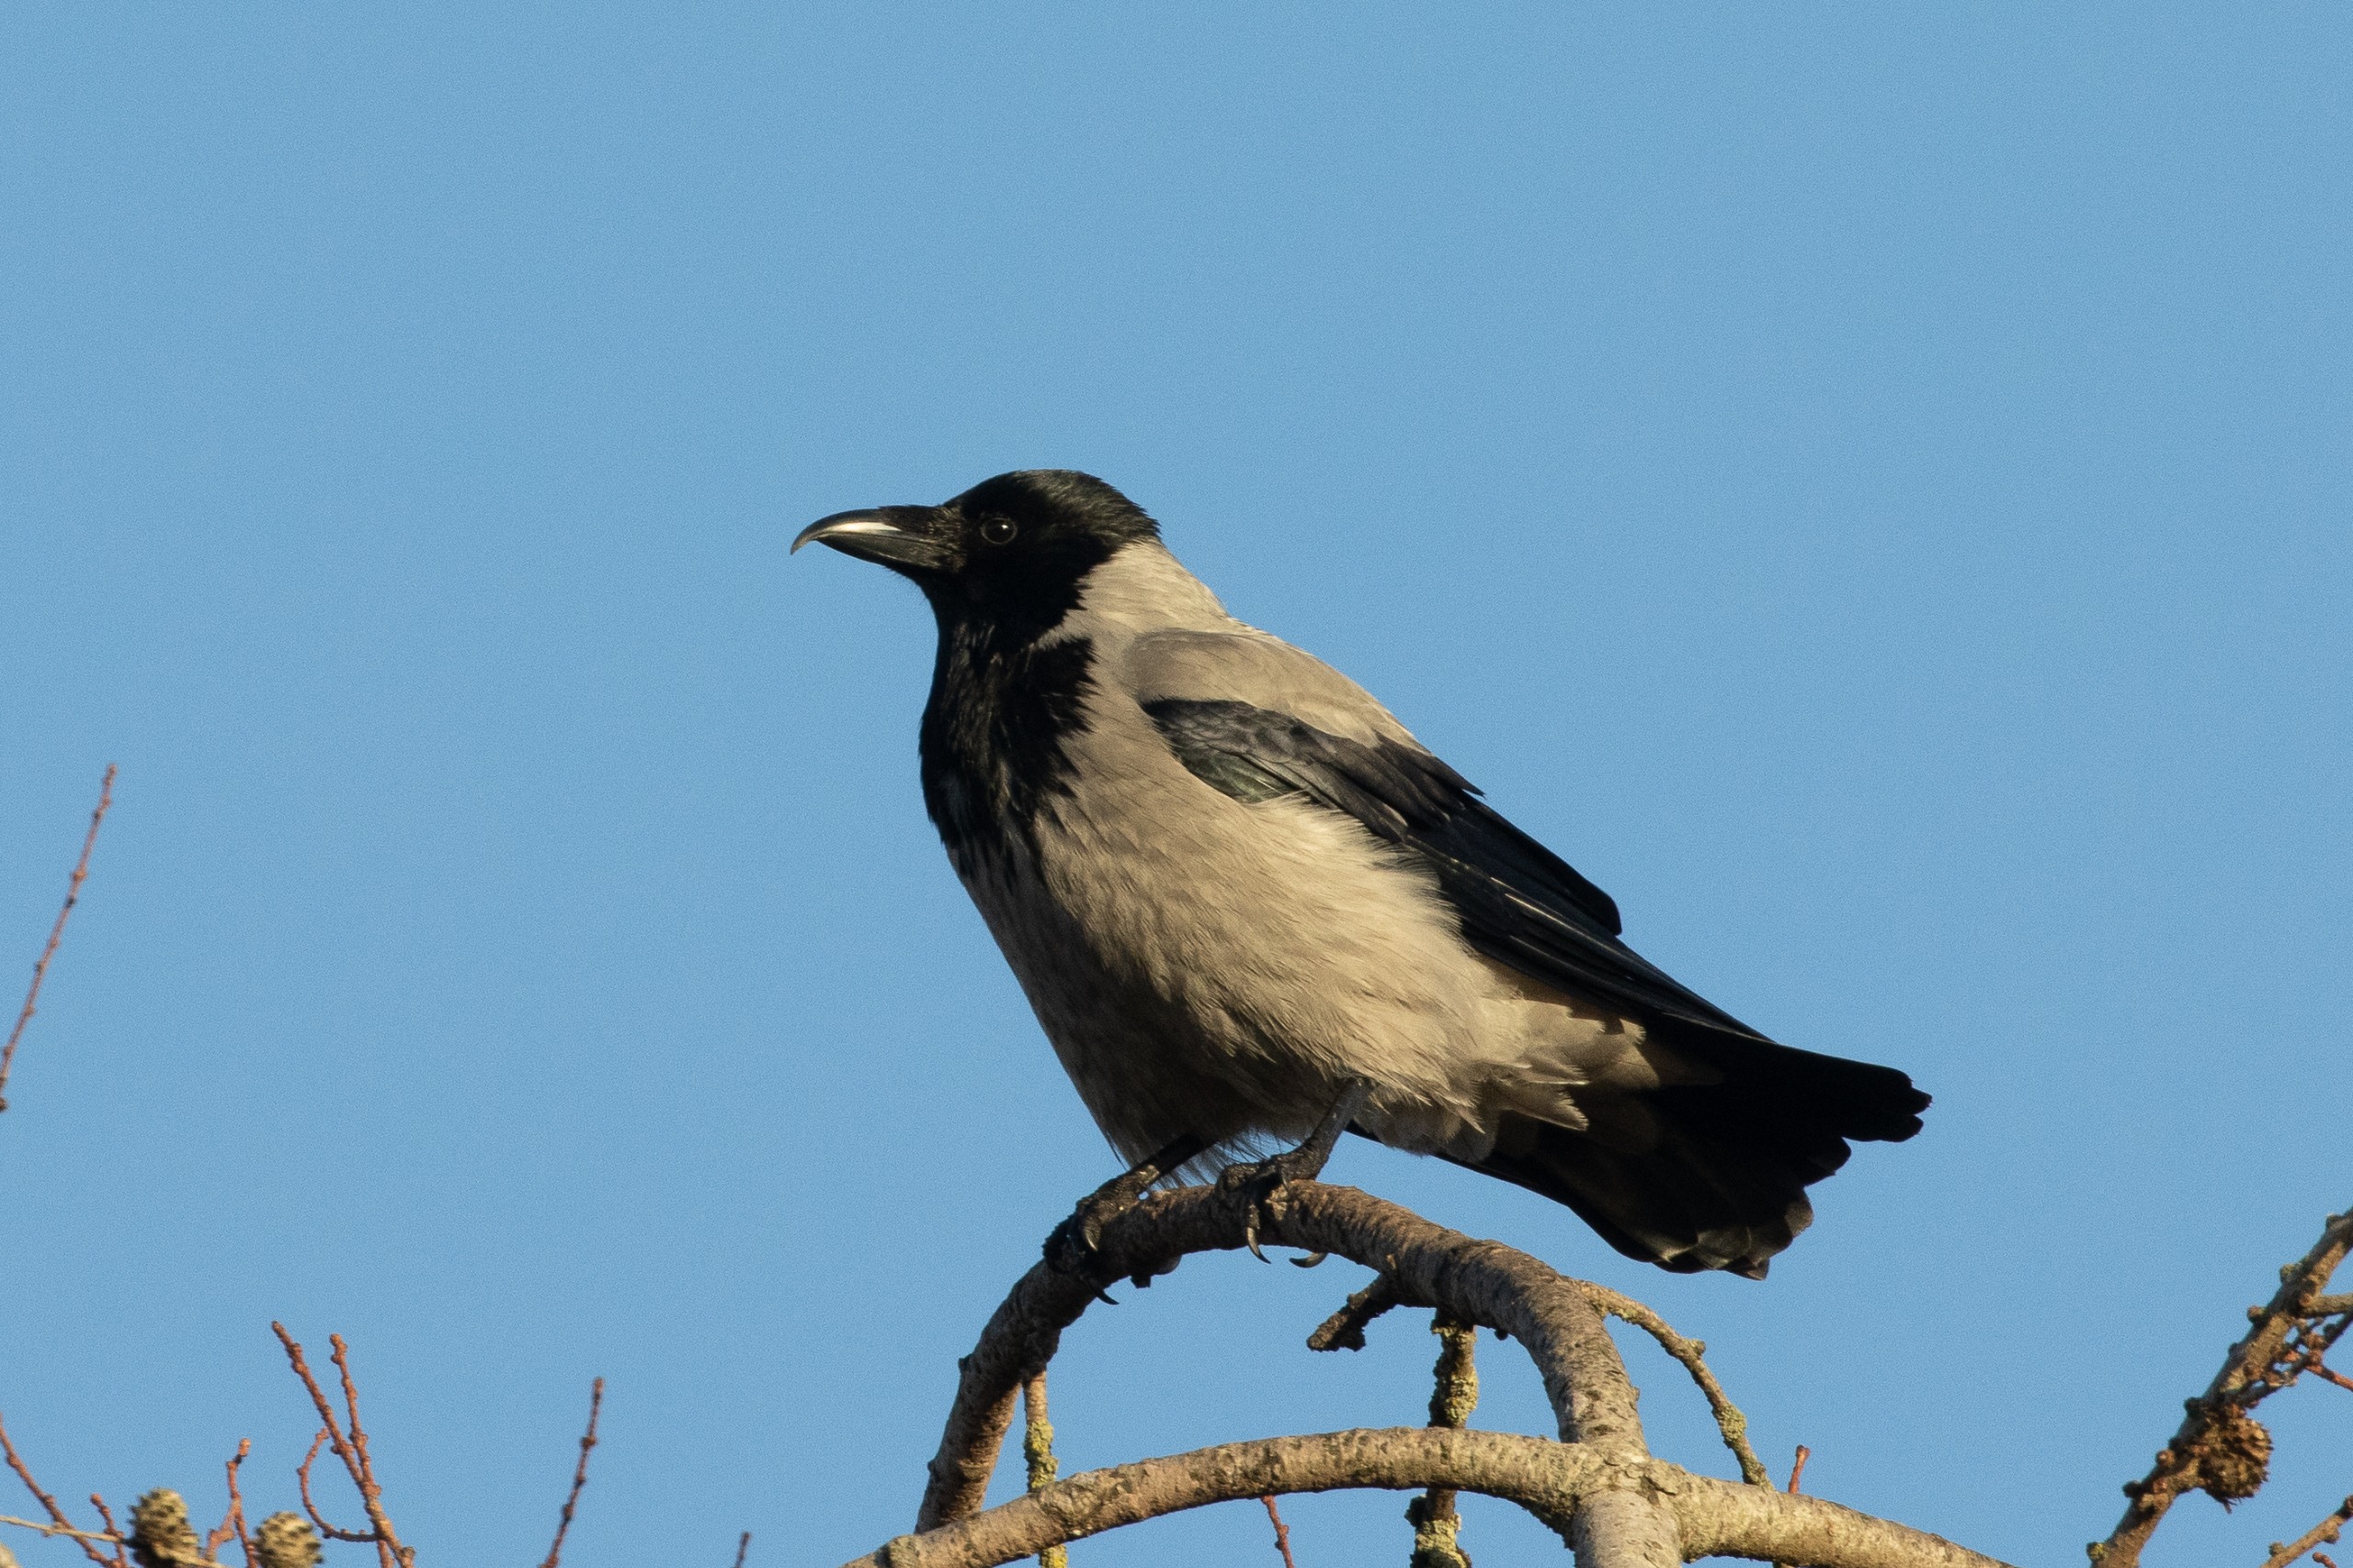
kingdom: Animalia
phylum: Chordata
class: Aves
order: Passeriformes
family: Corvidae
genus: Corvus
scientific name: Corvus cornix
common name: Gråkrage
